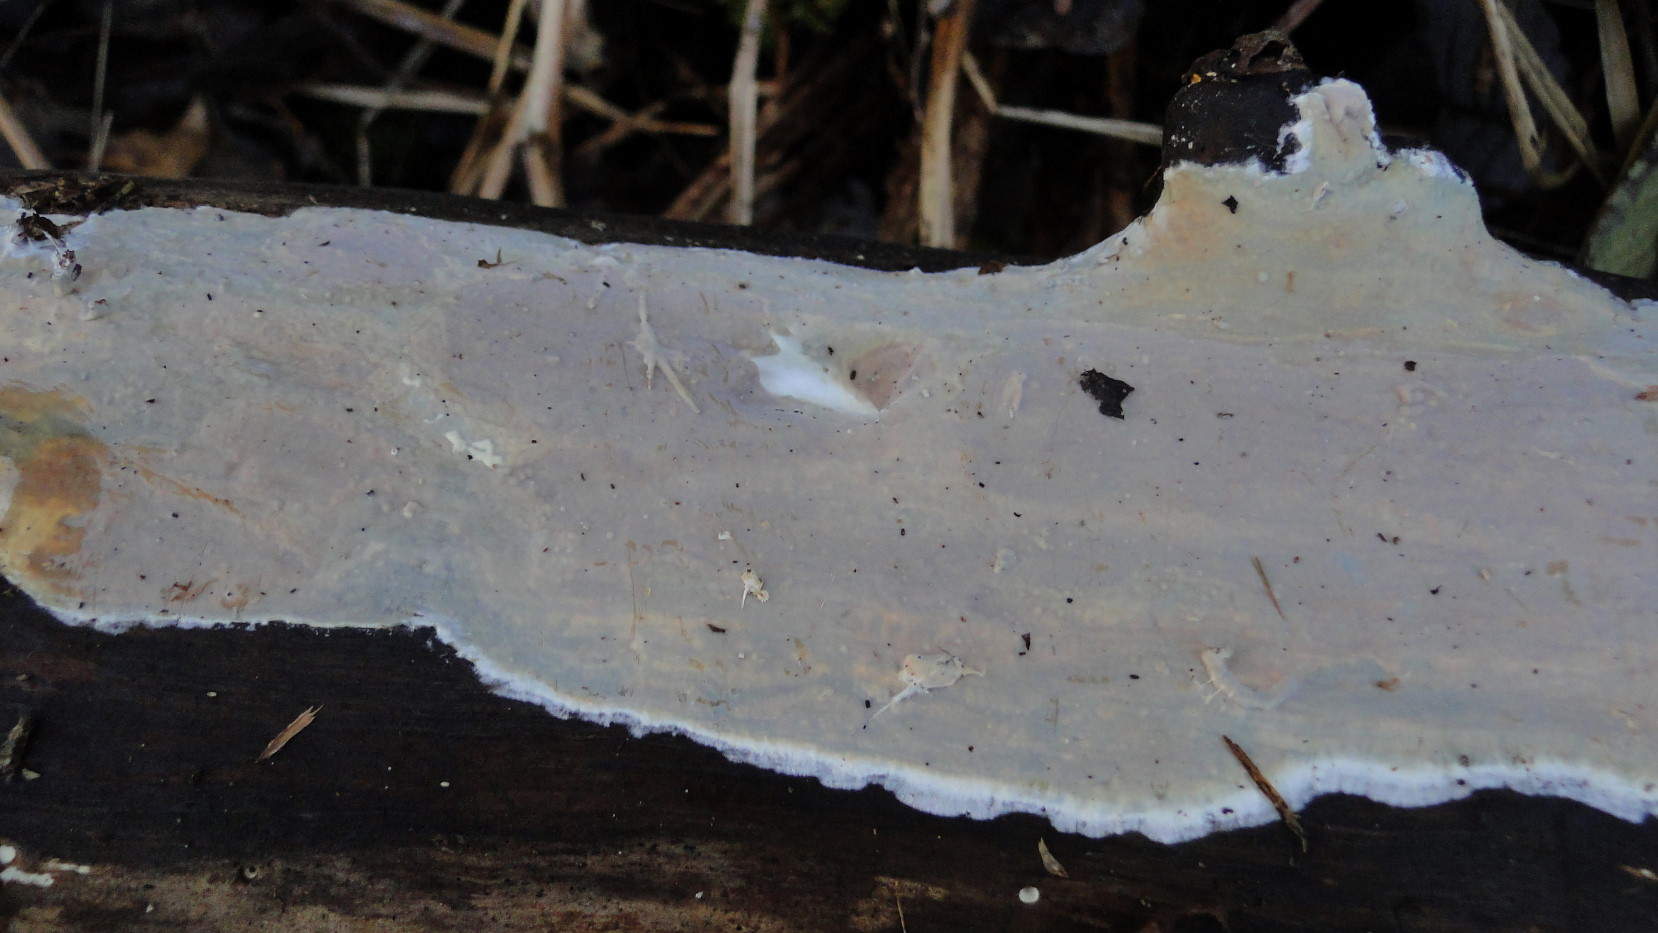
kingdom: Fungi
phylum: Basidiomycota
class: Agaricomycetes
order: Russulales
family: Peniophoraceae
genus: Scytinostroma
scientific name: Scytinostroma hemidichophyticum
